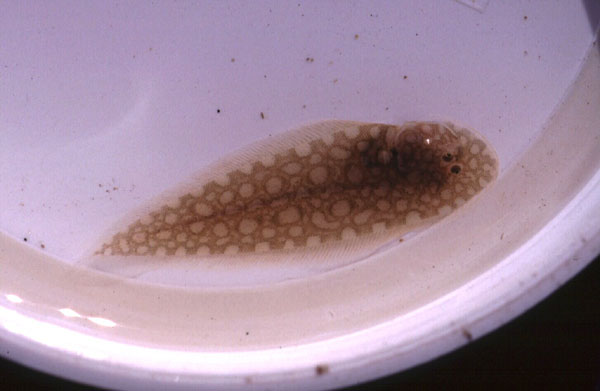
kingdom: Animalia
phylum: Chordata
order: Pleuronectiformes
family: Cynoglossidae
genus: Paraplagusia
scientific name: Paraplagusia bilineata
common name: Doublelined tonguesole
